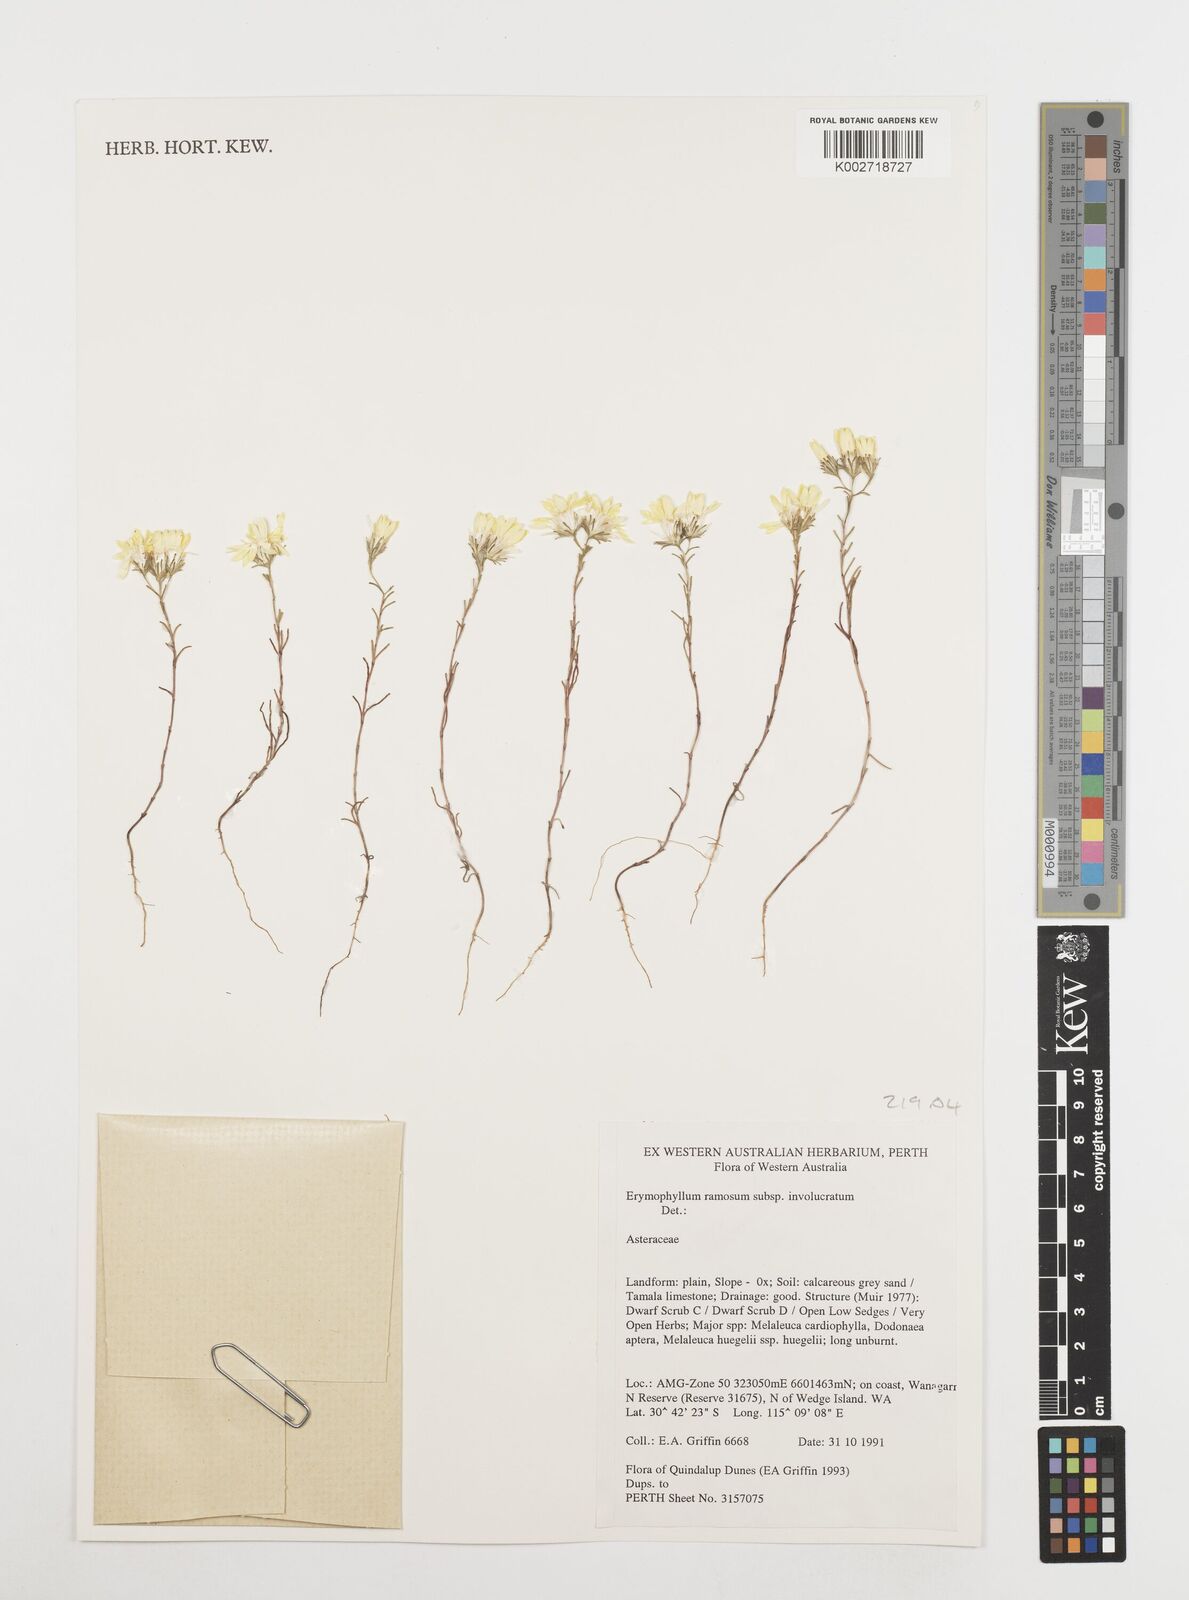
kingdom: Plantae
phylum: Tracheophyta
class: Magnoliopsida
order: Asterales
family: Asteraceae
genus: Erymophyllum
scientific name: Erymophyllum ramosum
